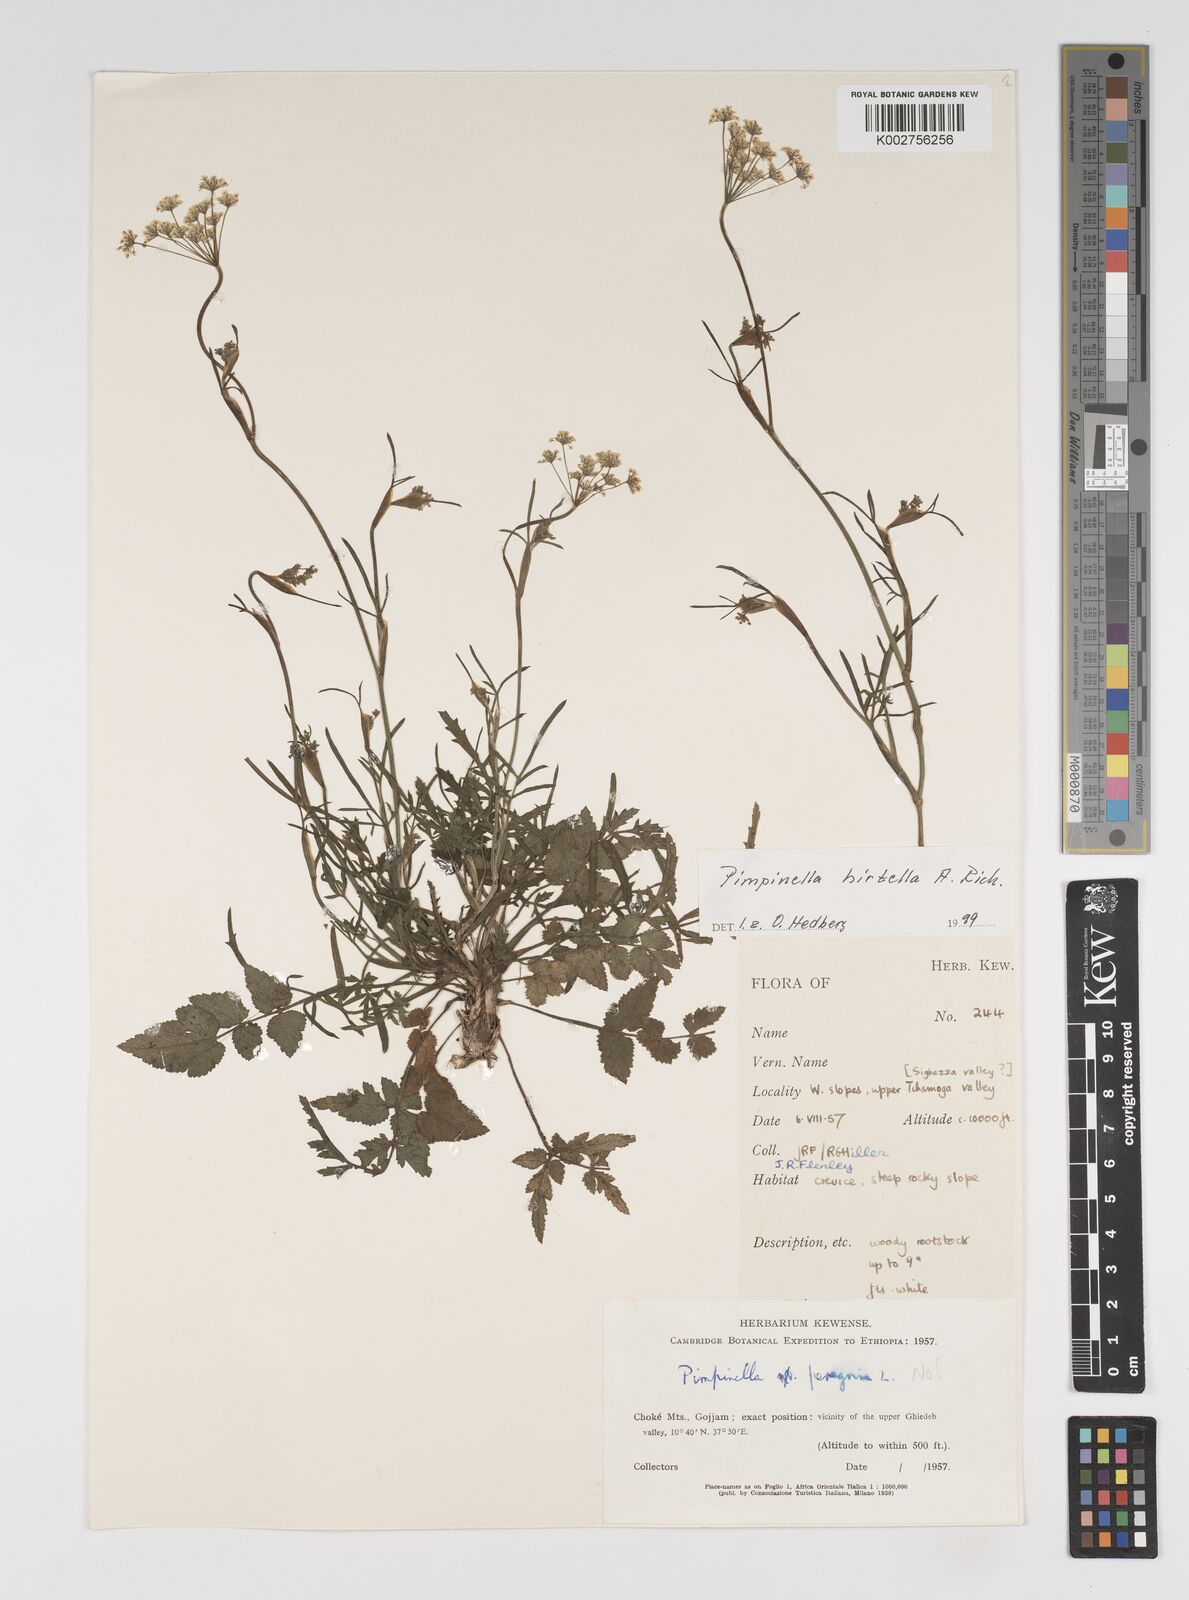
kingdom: Plantae
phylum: Tracheophyta
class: Magnoliopsida
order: Apiales
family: Apiaceae
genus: Pimpinella
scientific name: Pimpinella hirtella
